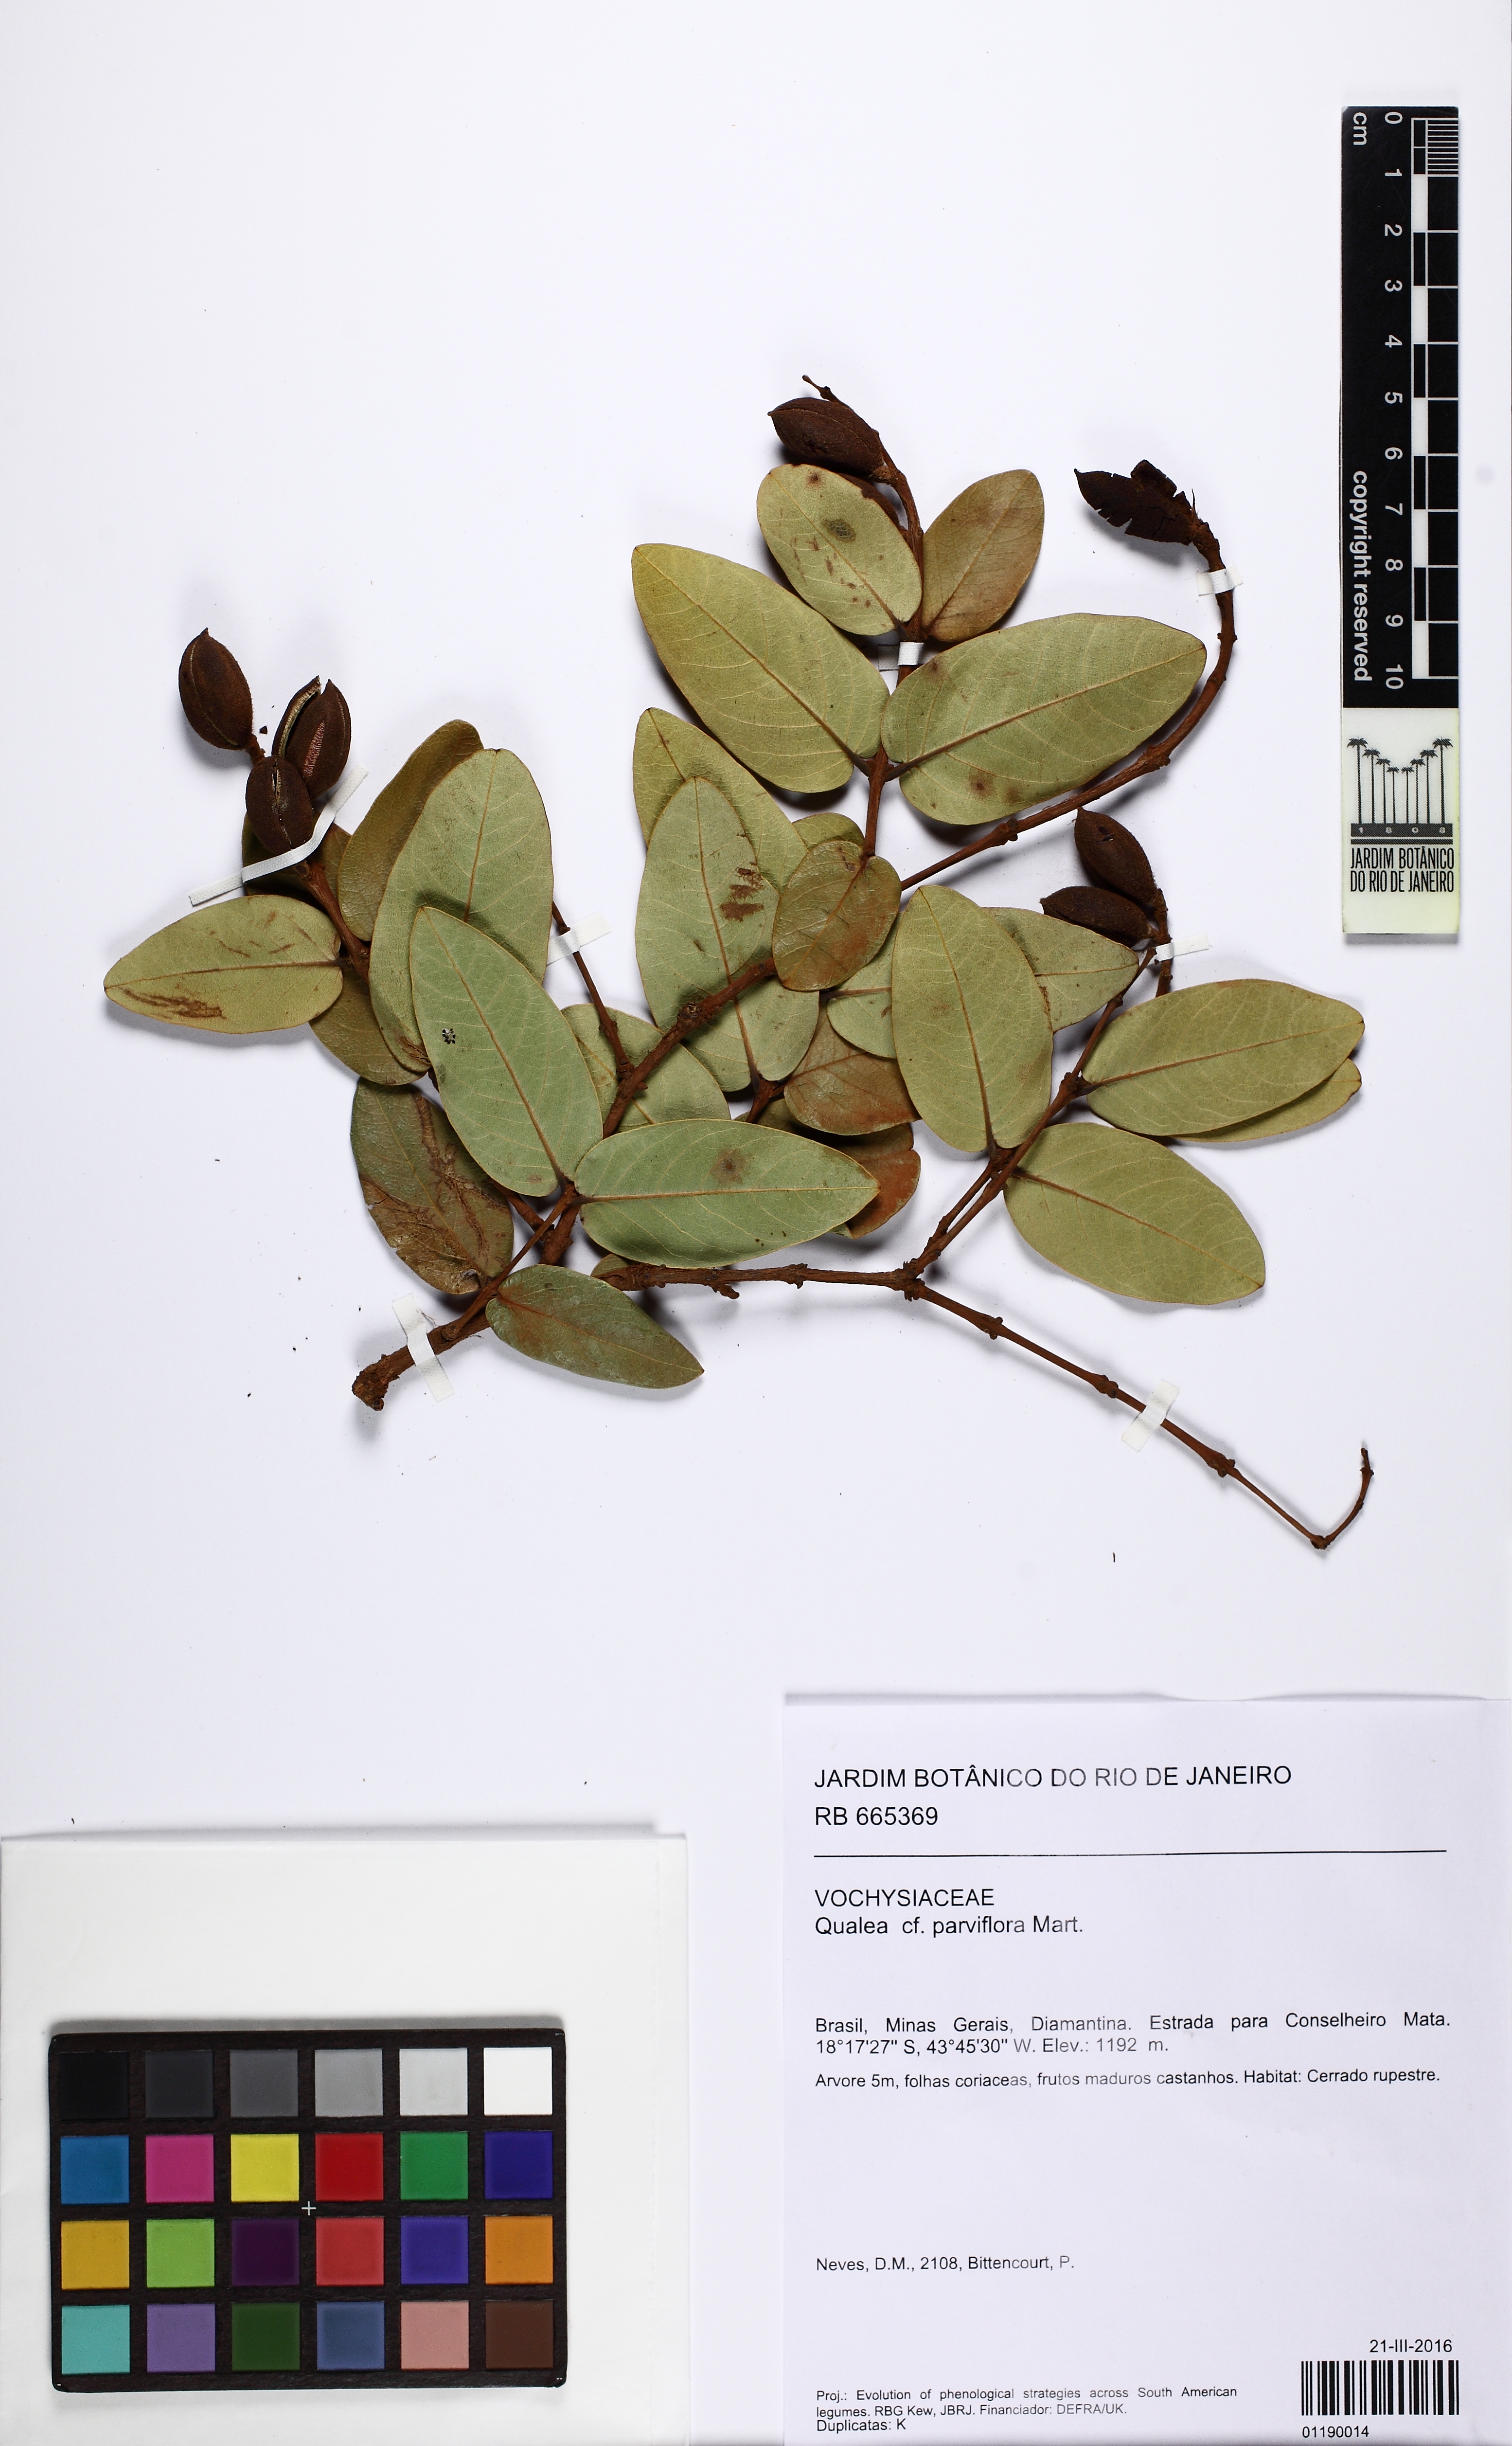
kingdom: Plantae
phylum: Tracheophyta
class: Magnoliopsida
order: Myrtales
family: Vochysiaceae
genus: Qualea
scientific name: Qualea parviflora
